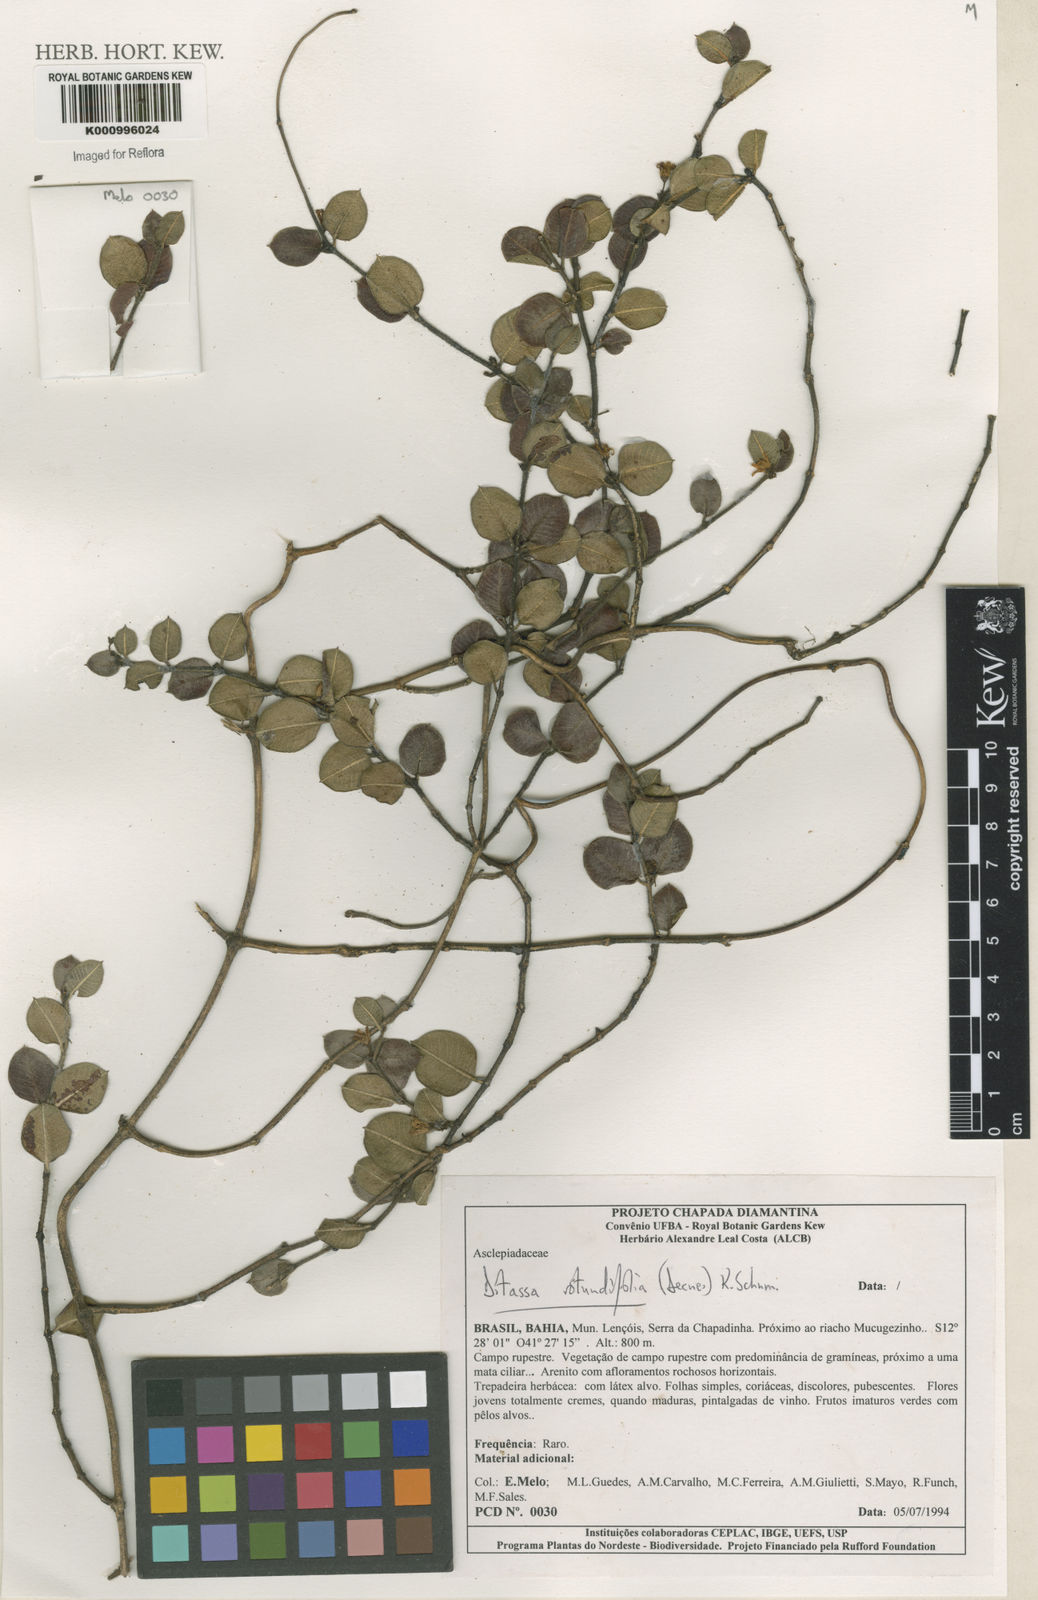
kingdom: Plantae
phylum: Tracheophyta
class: Magnoliopsida
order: Gentianales
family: Apocynaceae
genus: Ditassa
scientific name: Ditassa
